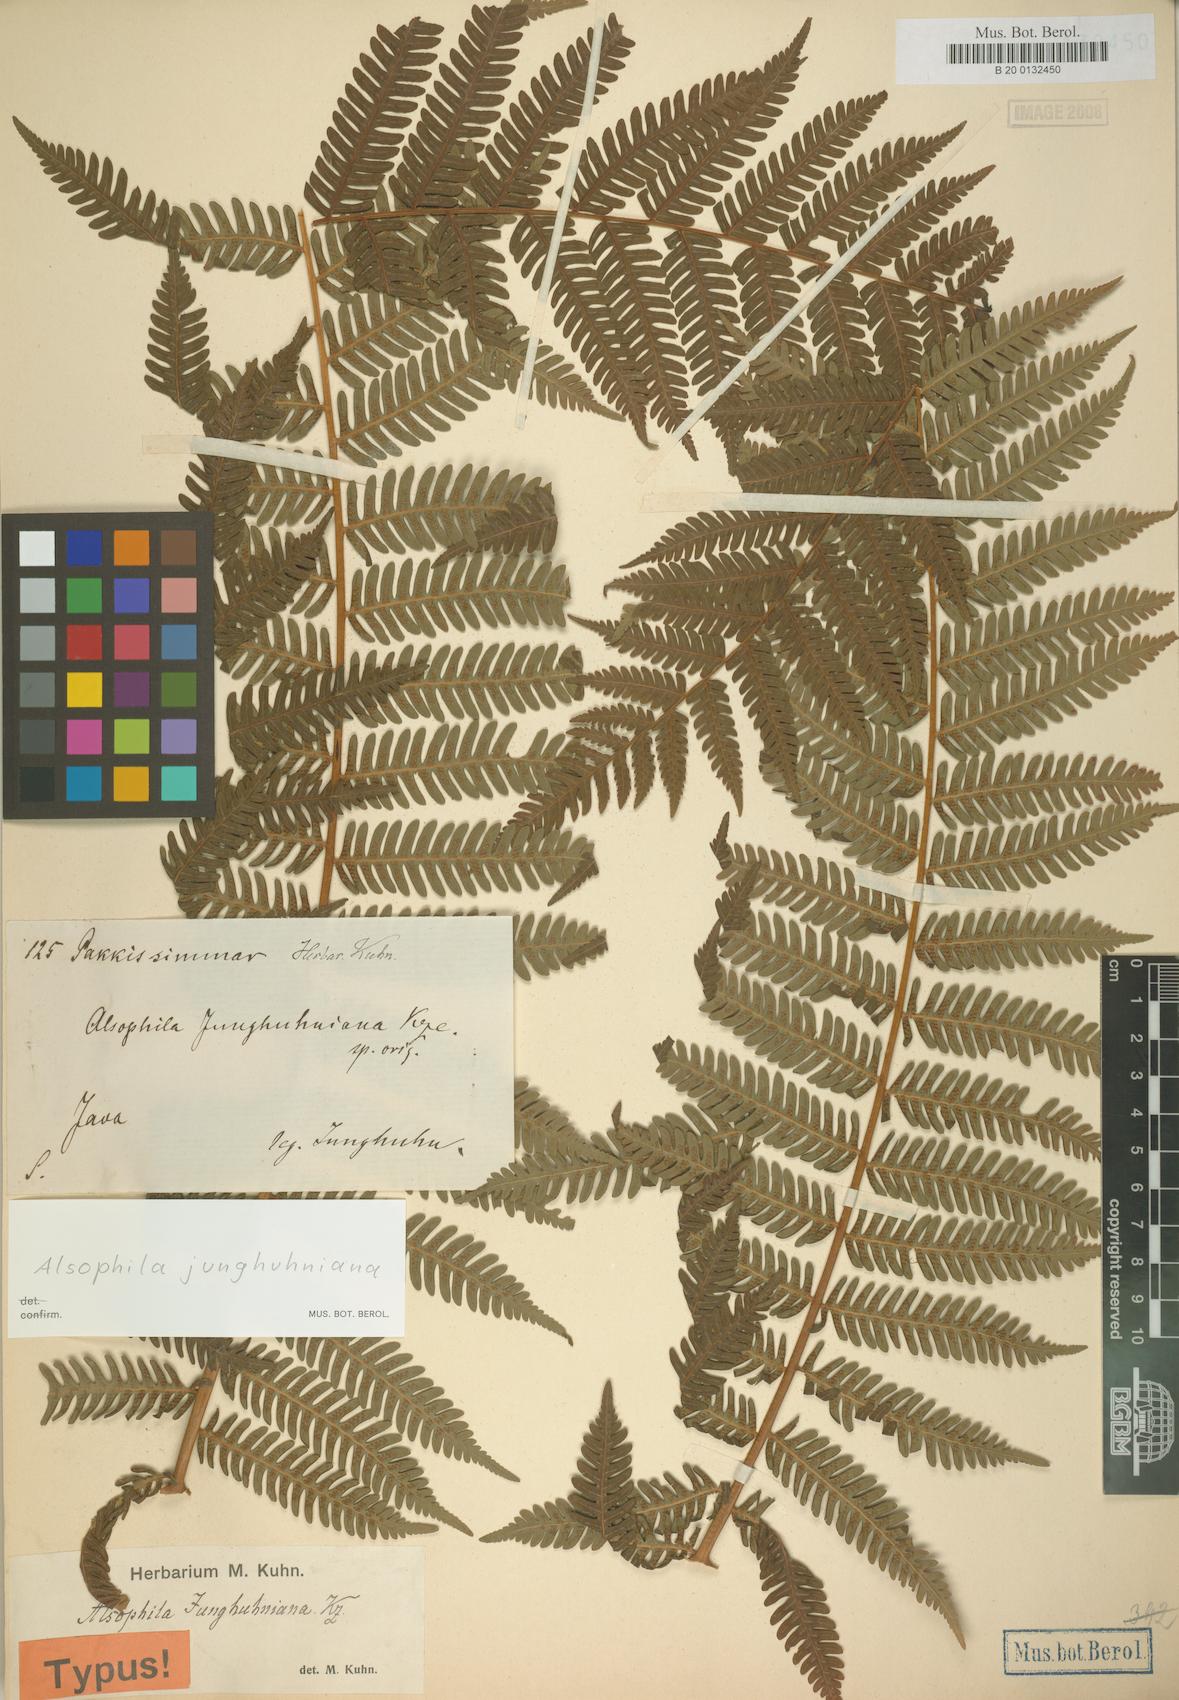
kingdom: Plantae
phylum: Tracheophyta
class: Polypodiopsida
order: Cyatheales
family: Cyatheaceae
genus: Alsophila
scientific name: Alsophila junghuhniana
